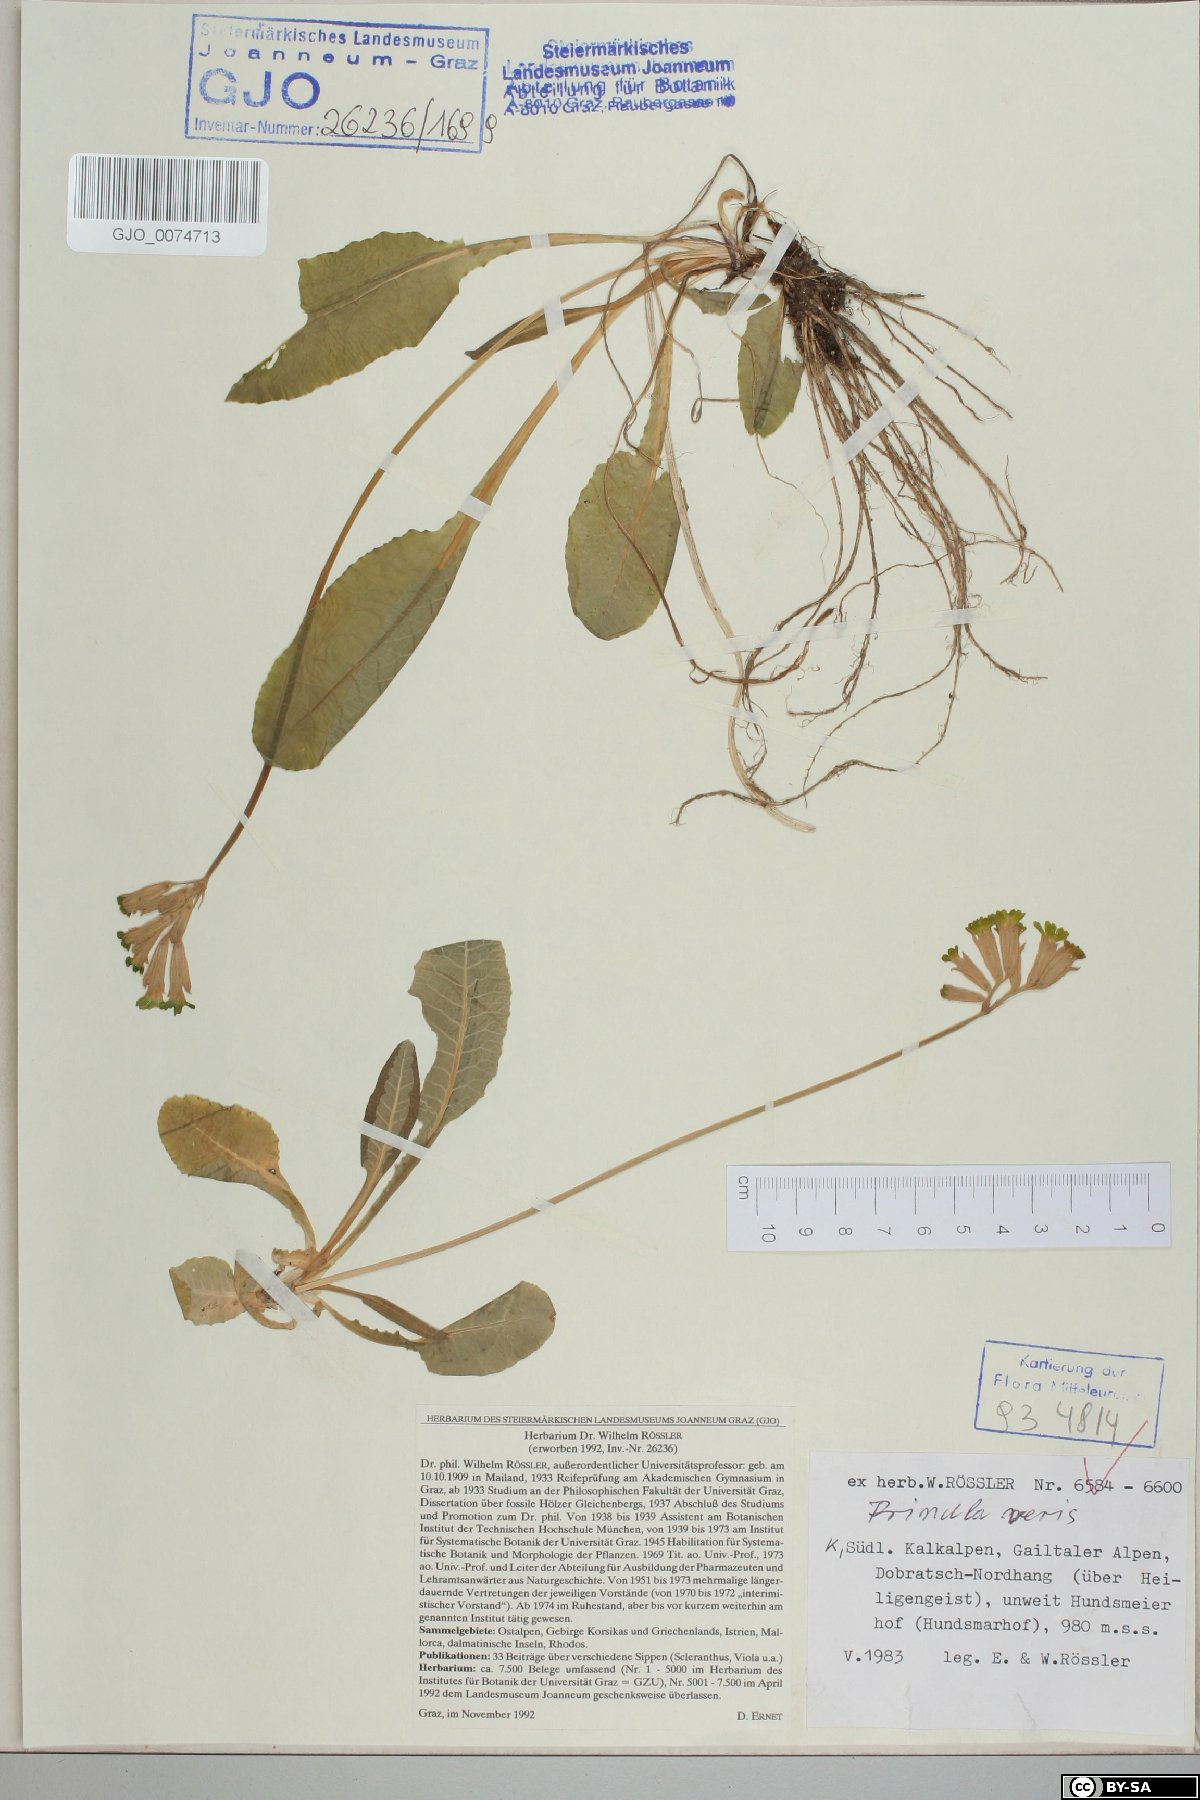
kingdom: Plantae
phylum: Tracheophyta
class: Magnoliopsida
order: Ericales
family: Primulaceae
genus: Primula
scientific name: Primula veris
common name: Cowslip
